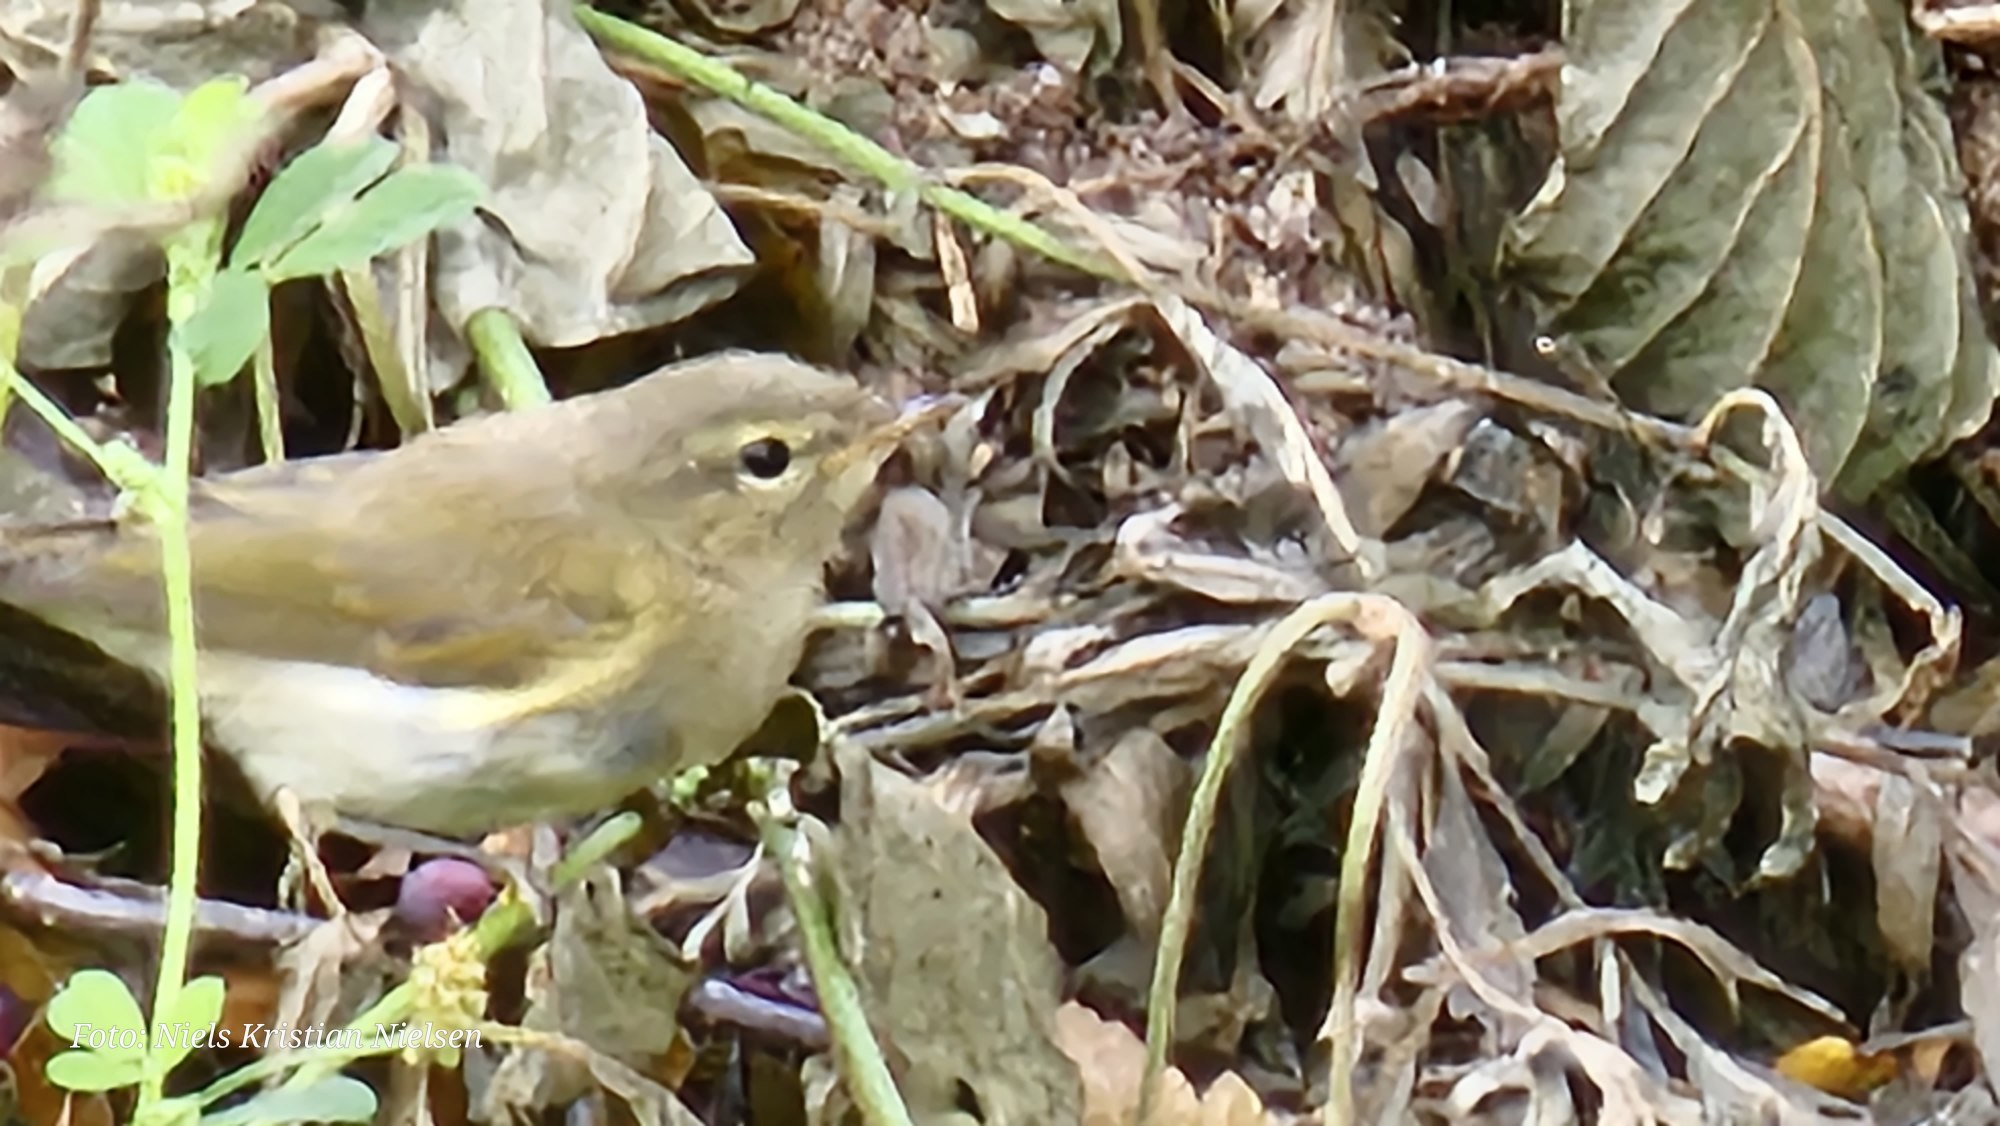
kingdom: Animalia
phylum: Chordata
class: Aves
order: Passeriformes
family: Phylloscopidae
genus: Phylloscopus
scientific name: Phylloscopus collybita
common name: Gransanger
